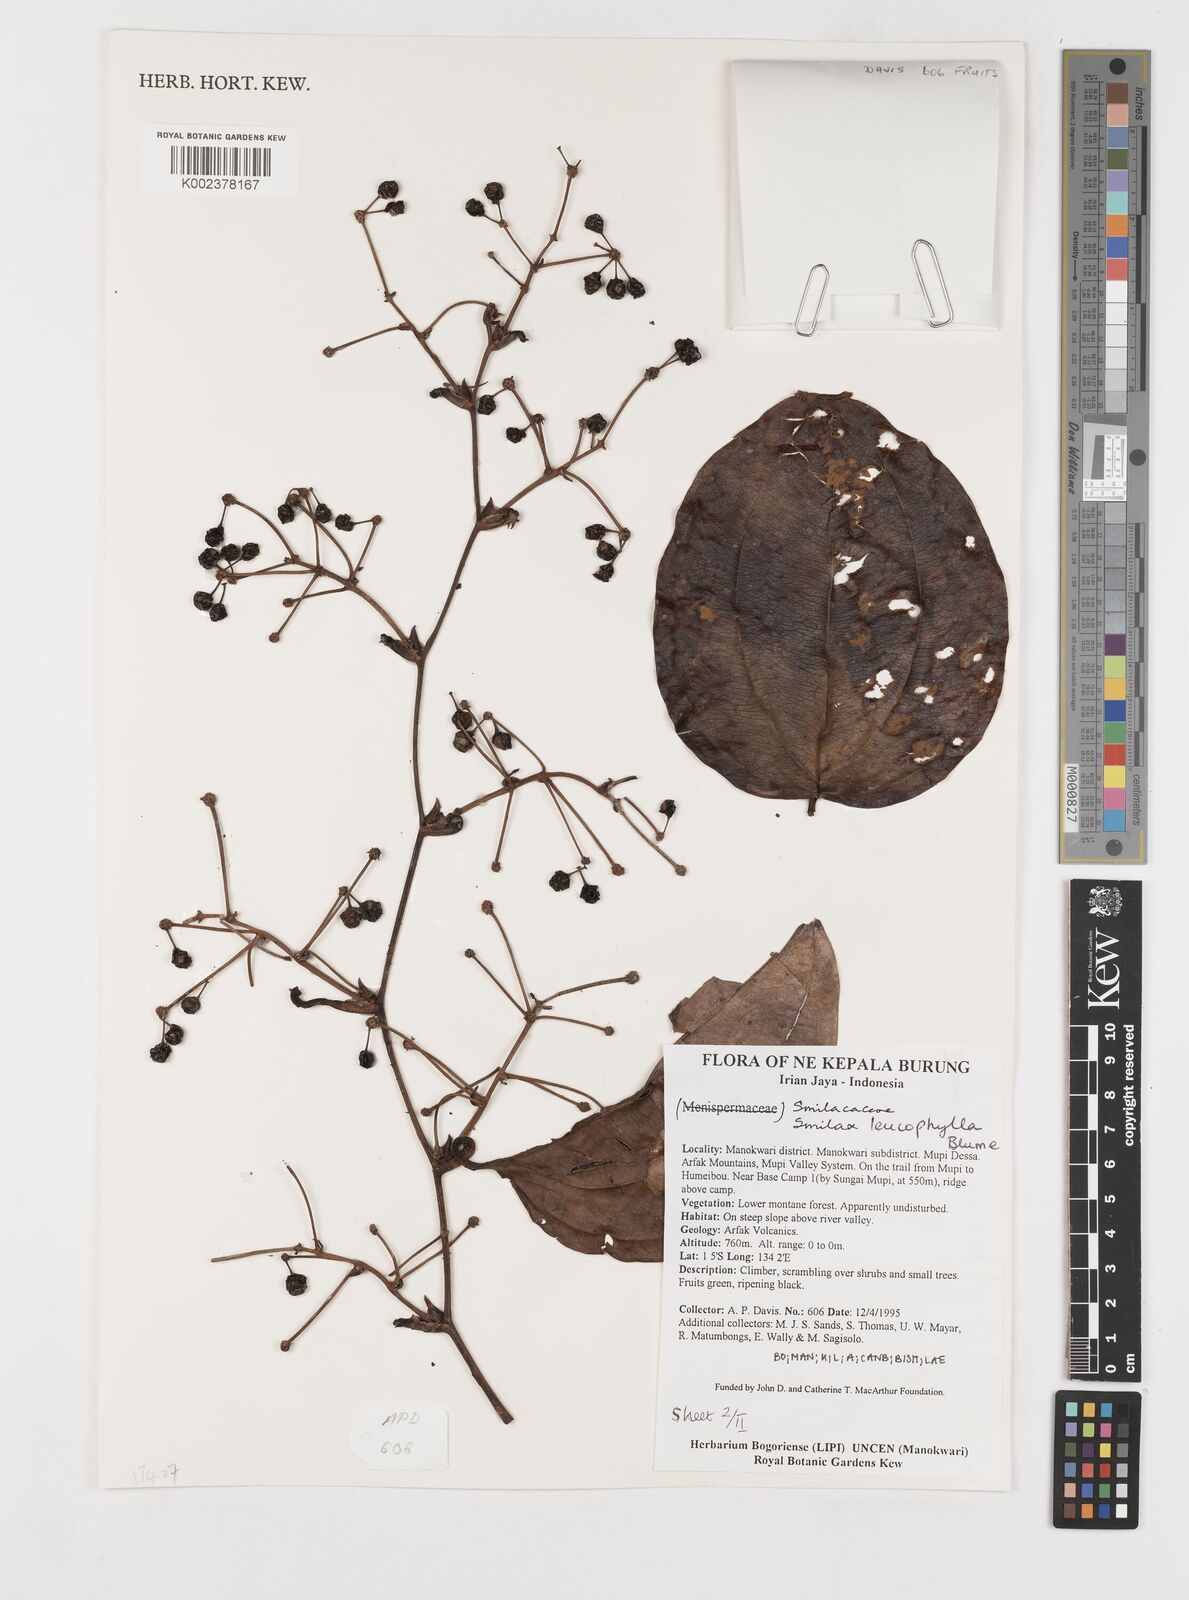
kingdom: Plantae
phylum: Tracheophyta
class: Liliopsida
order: Liliales
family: Smilacaceae
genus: Smilax
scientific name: Smilax leucophylla
